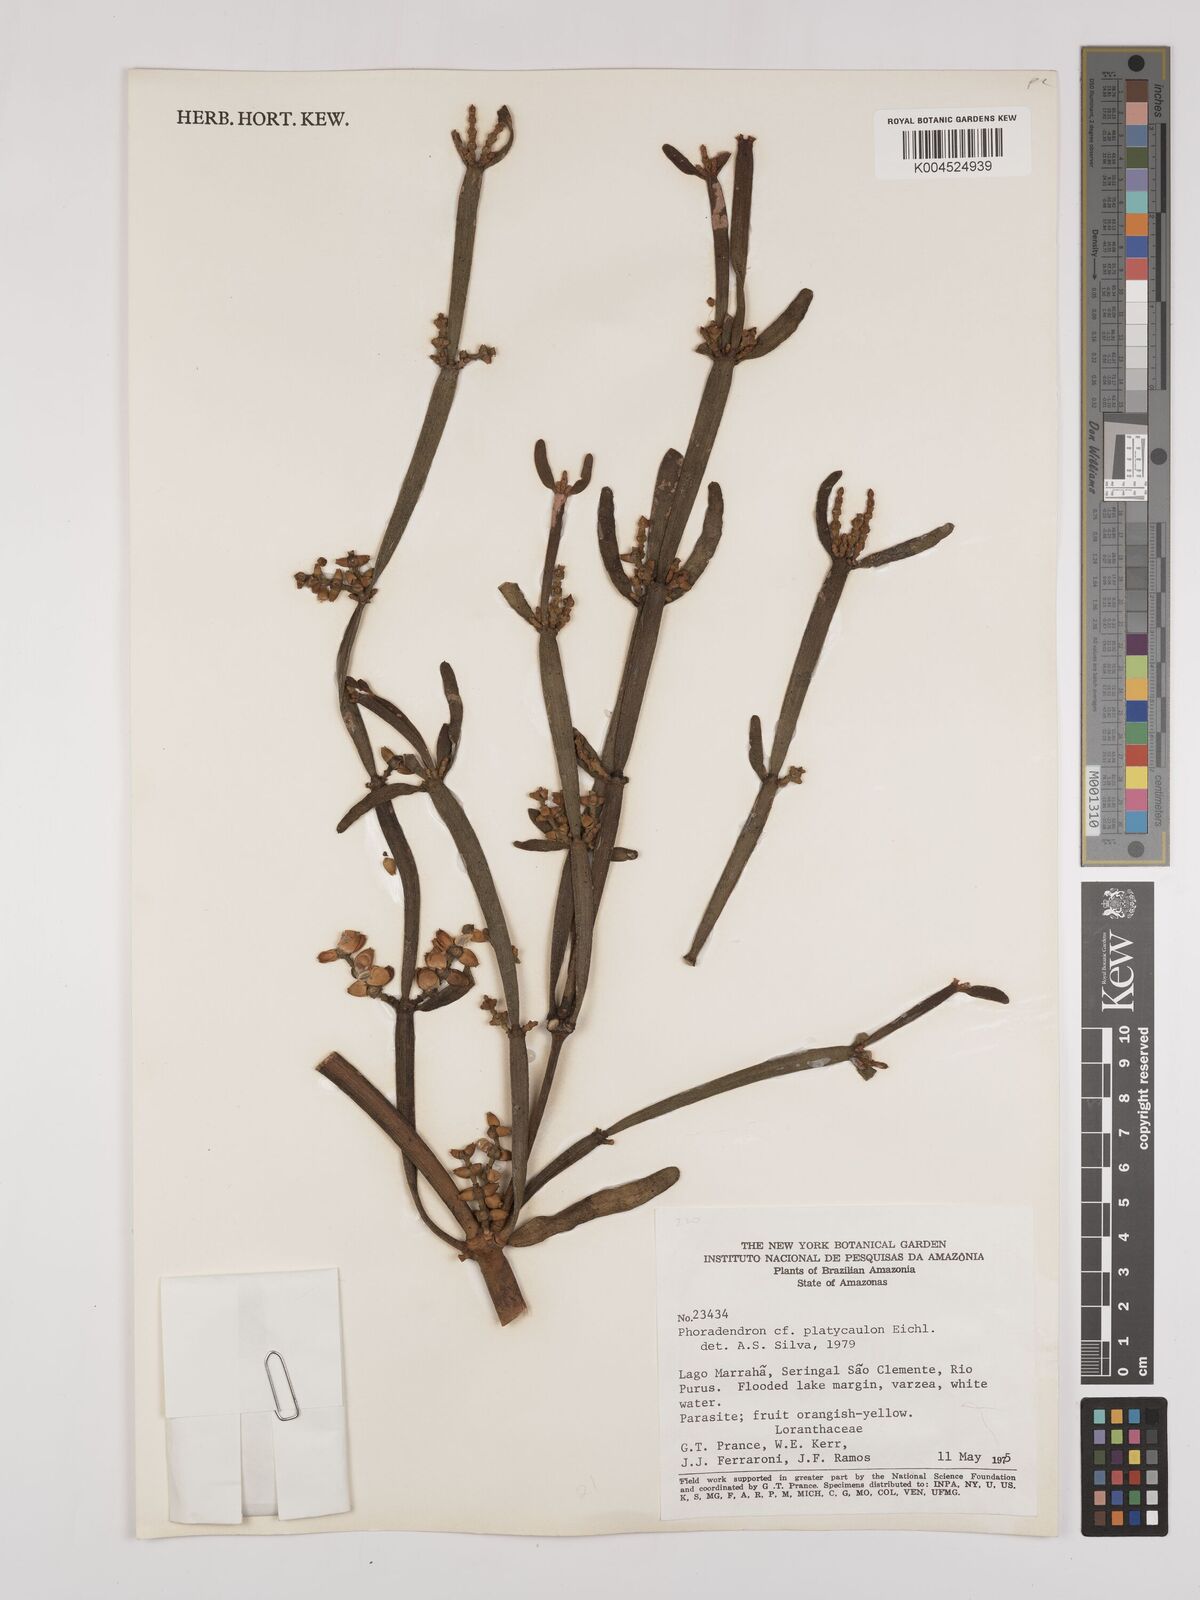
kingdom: Plantae
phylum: Tracheophyta
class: Magnoliopsida
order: Santalales
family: Viscaceae
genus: Phoradendron
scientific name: Phoradendron planiphyllum
